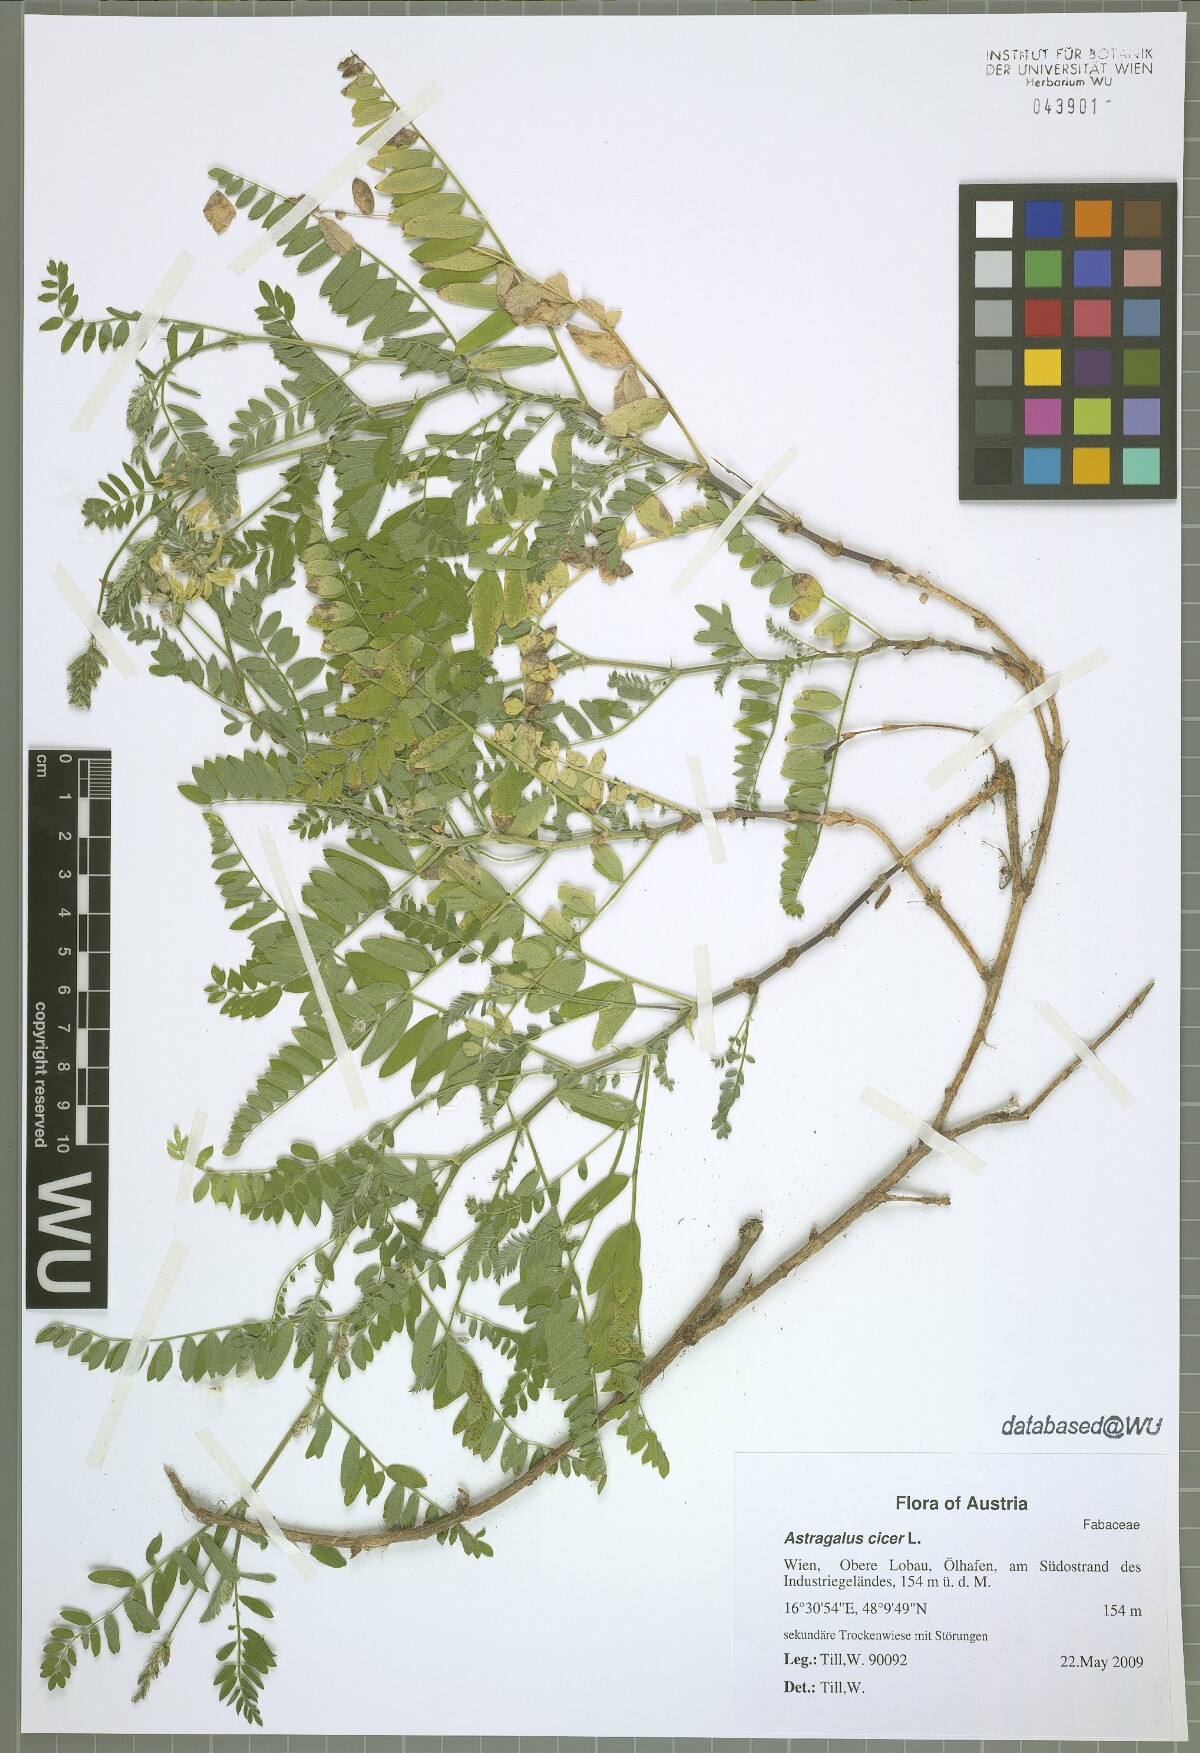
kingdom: Plantae
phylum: Tracheophyta
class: Magnoliopsida
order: Fabales
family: Fabaceae
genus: Astragalus
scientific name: Astragalus cicer
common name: Chick-pea milk-vetch
